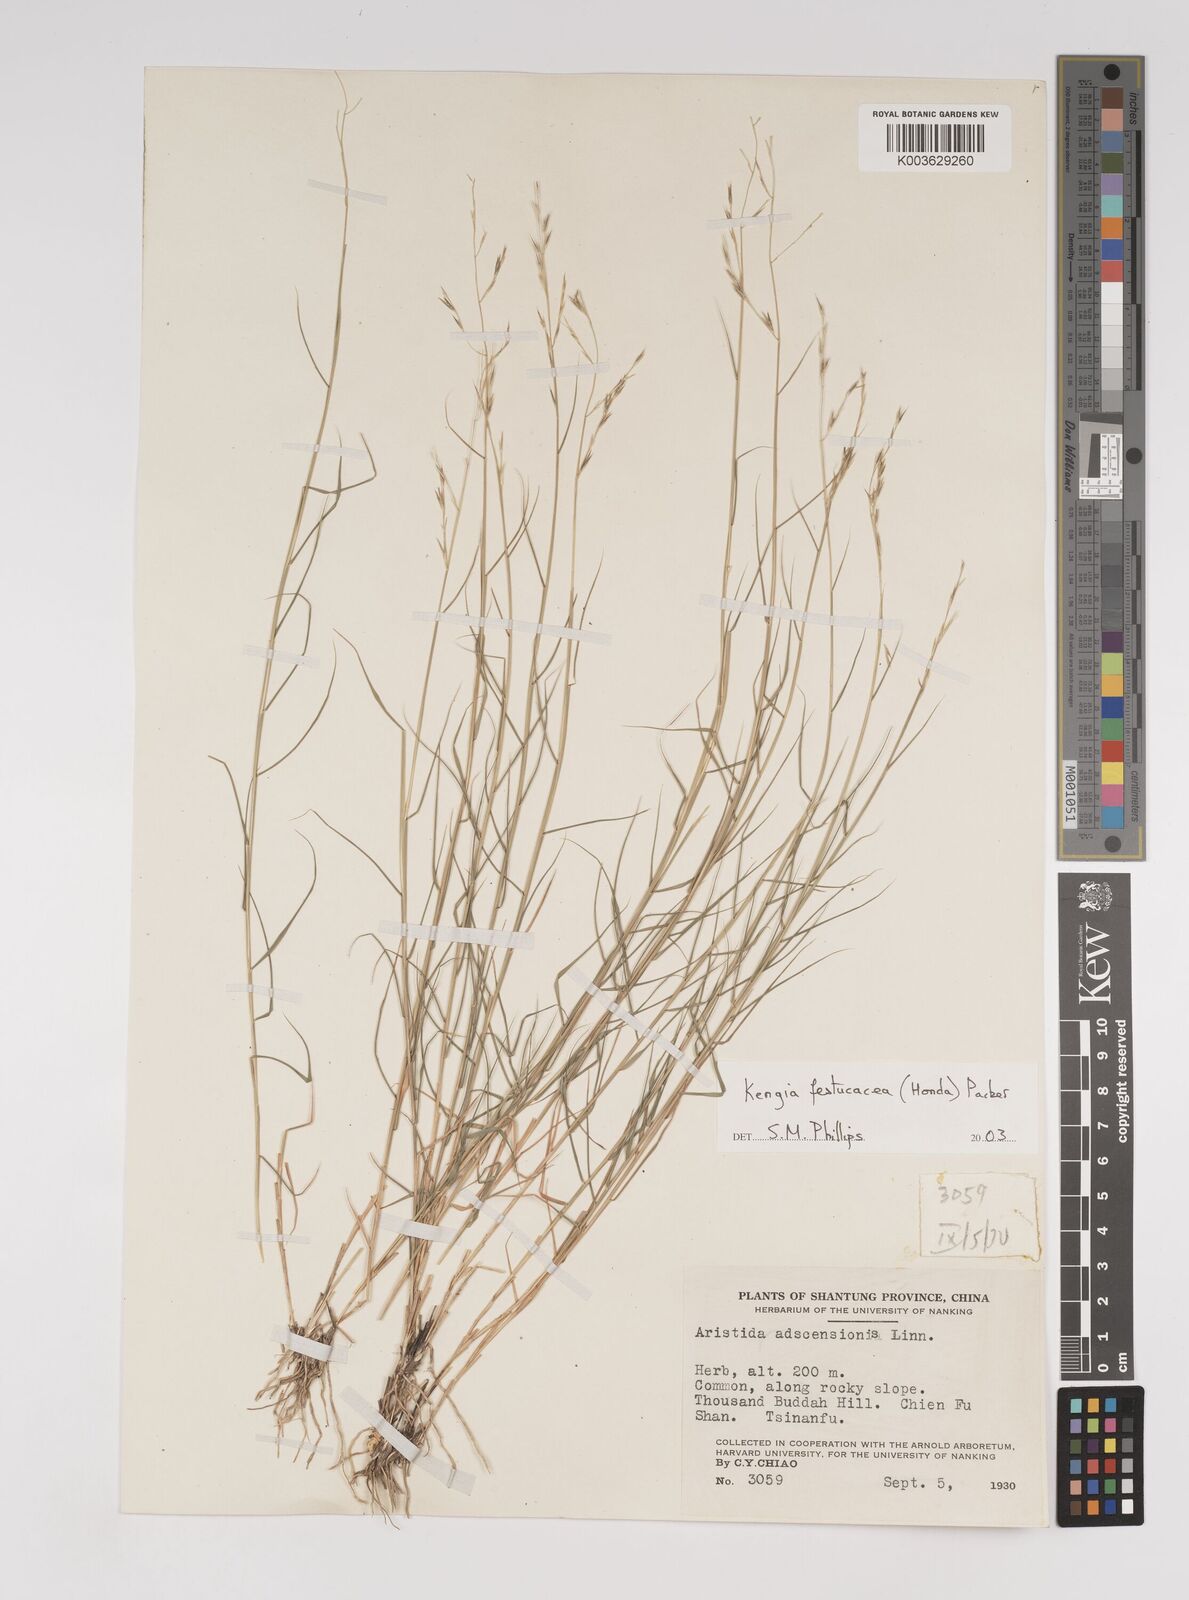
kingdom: Plantae
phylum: Tracheophyta
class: Liliopsida
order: Poales
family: Poaceae
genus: Cleistogenes
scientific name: Cleistogenes festucacea
